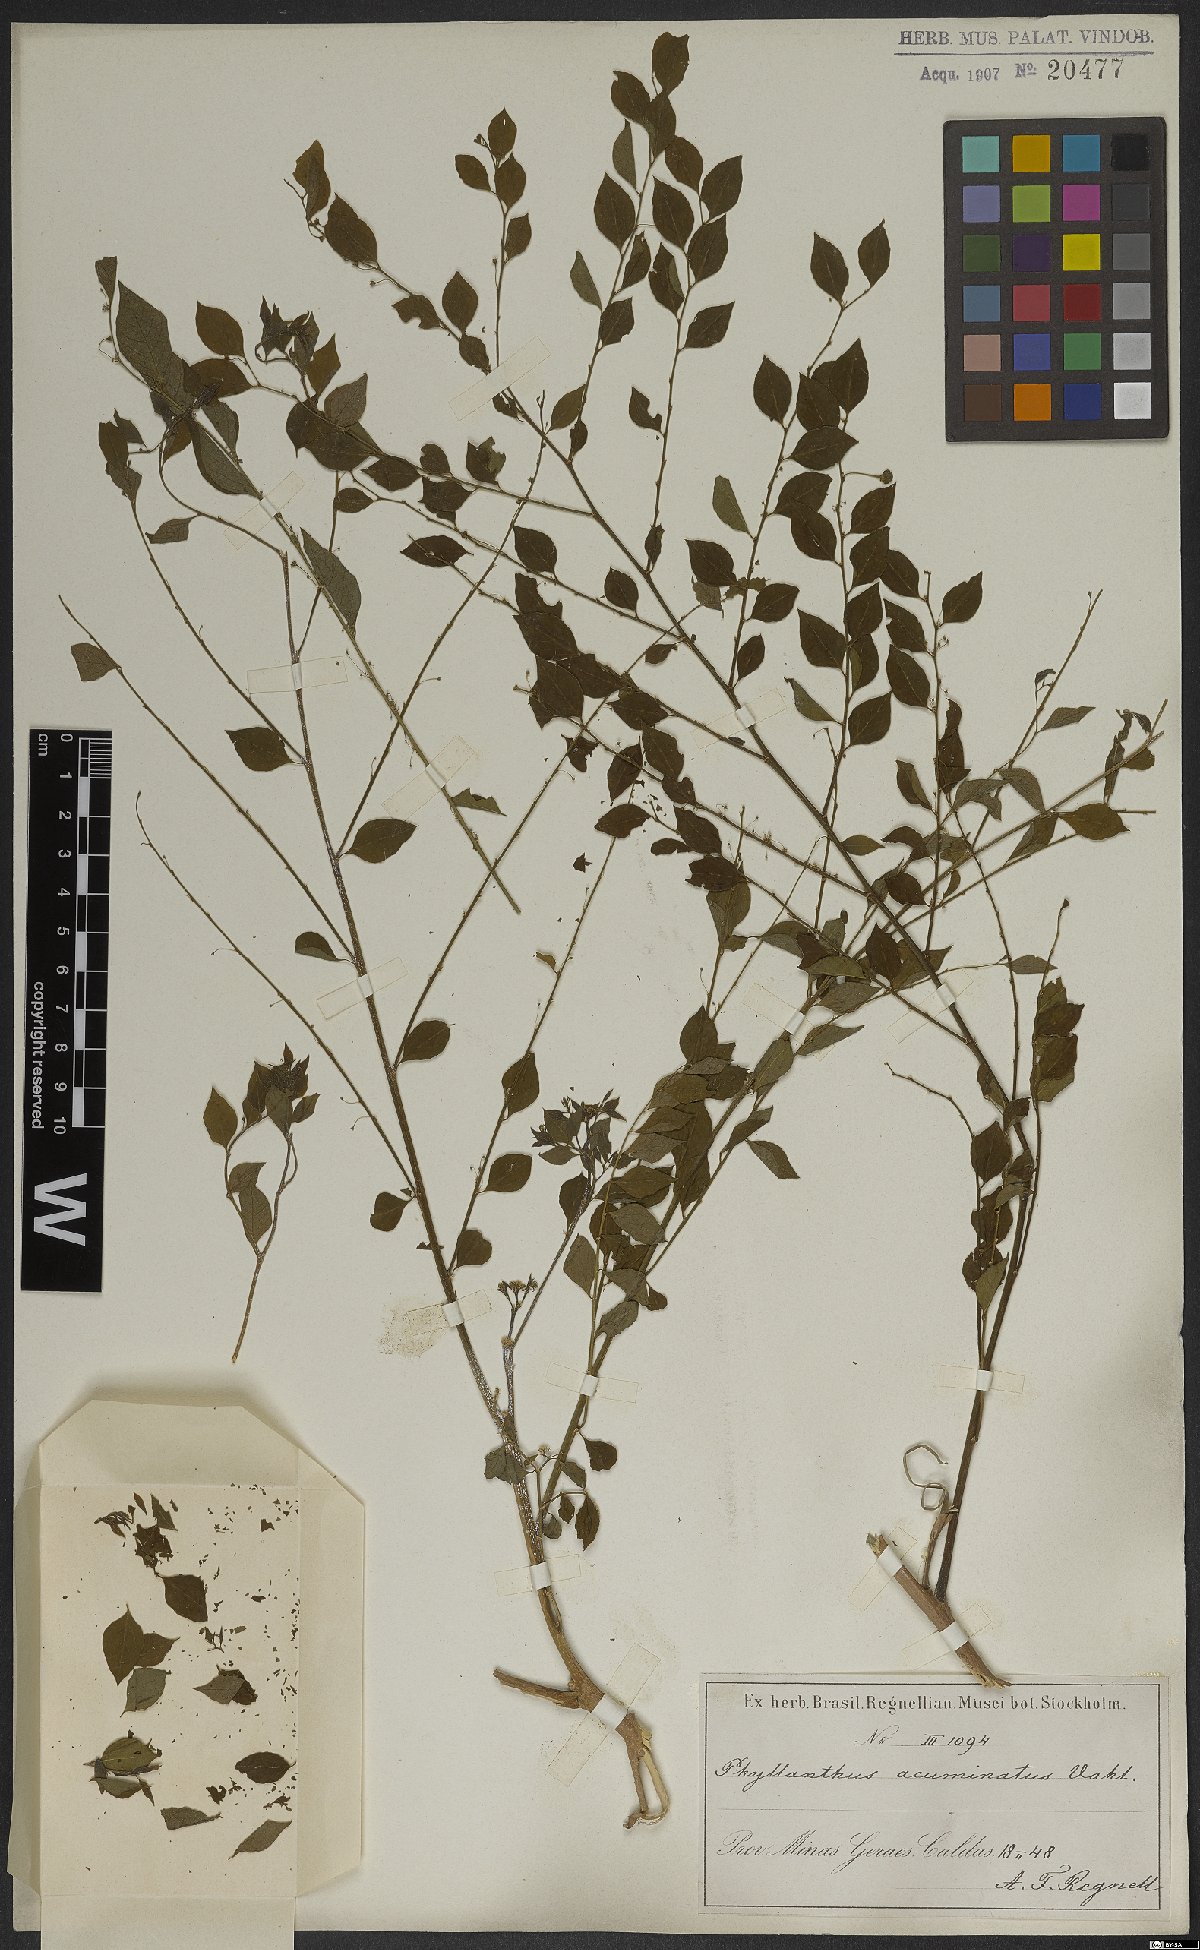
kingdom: Plantae
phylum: Tracheophyta
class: Magnoliopsida
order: Malpighiales
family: Phyllanthaceae
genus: Phyllanthus
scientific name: Phyllanthus acuminatus
